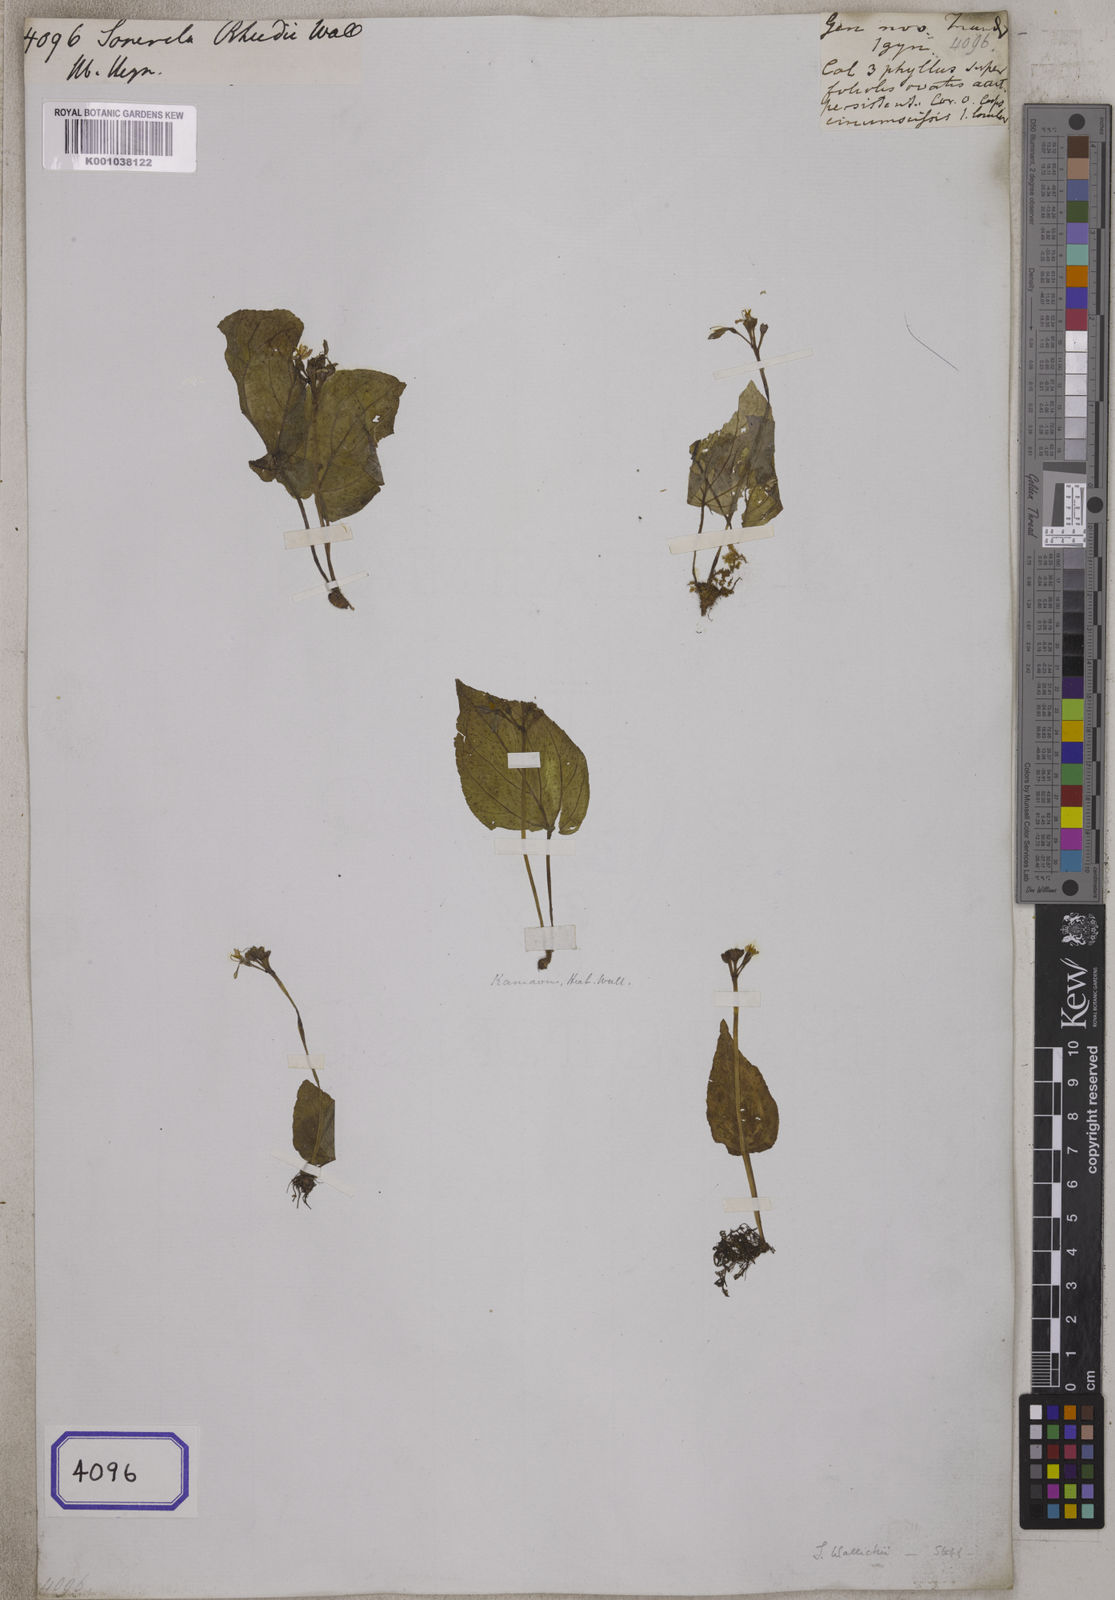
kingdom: Plantae
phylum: Tracheophyta
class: Magnoliopsida
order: Myrtales
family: Melastomataceae
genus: Sonerila
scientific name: Sonerila rheedei
